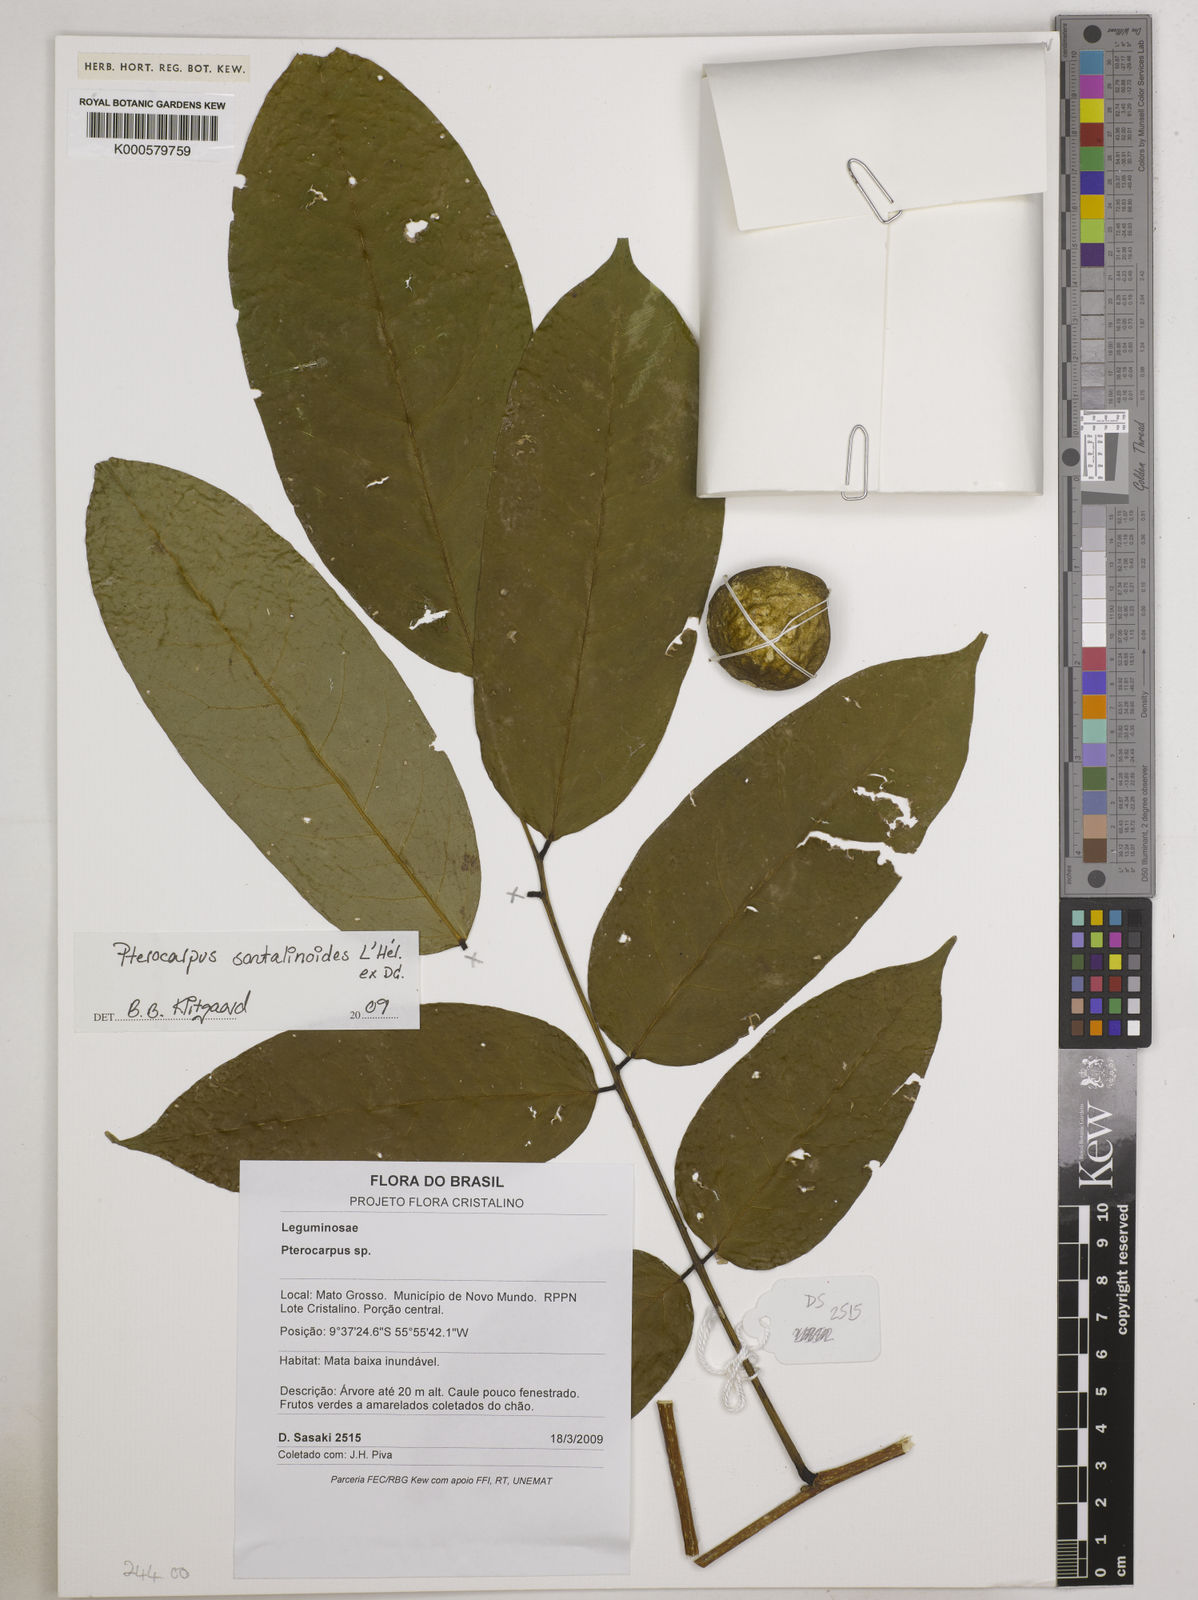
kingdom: Plantae
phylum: Tracheophyta
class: Magnoliopsida
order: Fabales
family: Fabaceae
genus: Pterocarpus
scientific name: Pterocarpus
